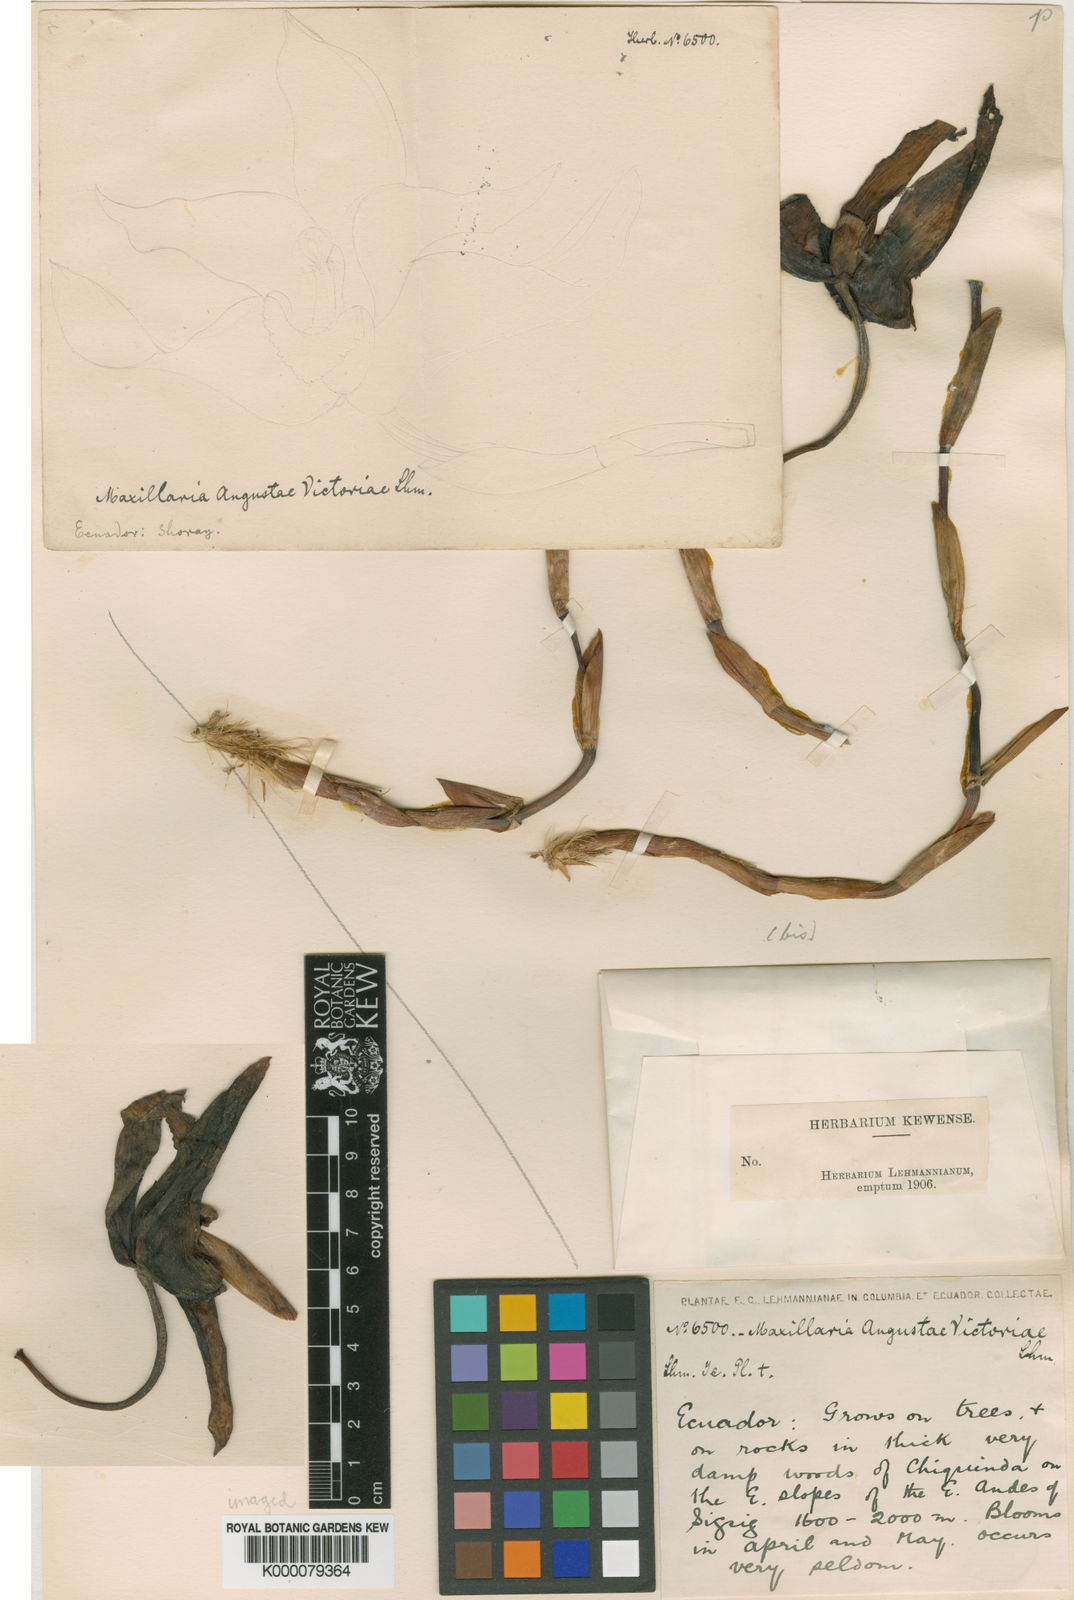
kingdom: Plantae
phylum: Tracheophyta
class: Liliopsida
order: Asparagales
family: Orchidaceae
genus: Maxillaria
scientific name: Maxillaria augustae-victoriae
